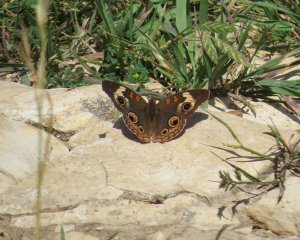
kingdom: Animalia
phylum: Arthropoda
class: Insecta
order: Lepidoptera
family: Nymphalidae
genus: Junonia
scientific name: Junonia coenia
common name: Common Buckeye
